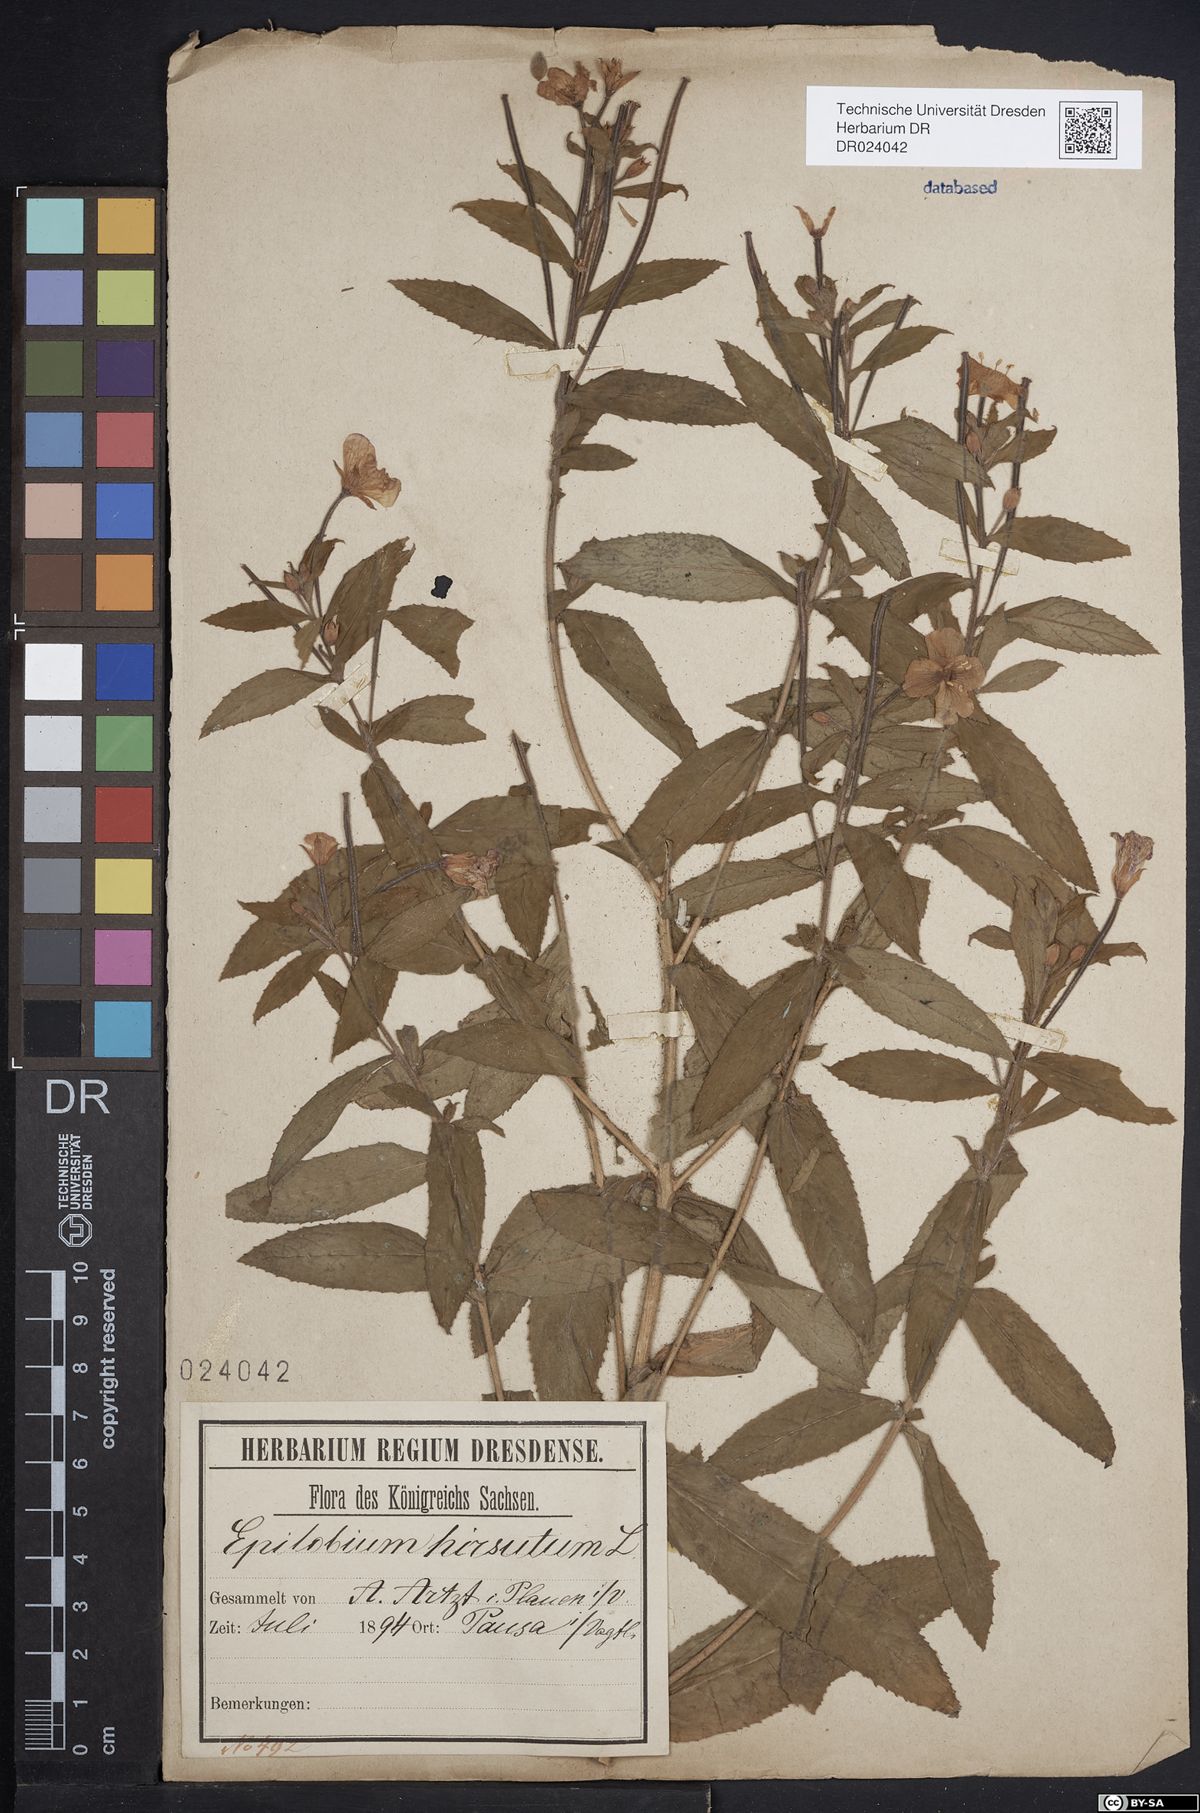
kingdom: Plantae
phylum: Tracheophyta
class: Magnoliopsida
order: Myrtales
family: Onagraceae
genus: Epilobium
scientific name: Epilobium hirsutum
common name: Great willowherb
